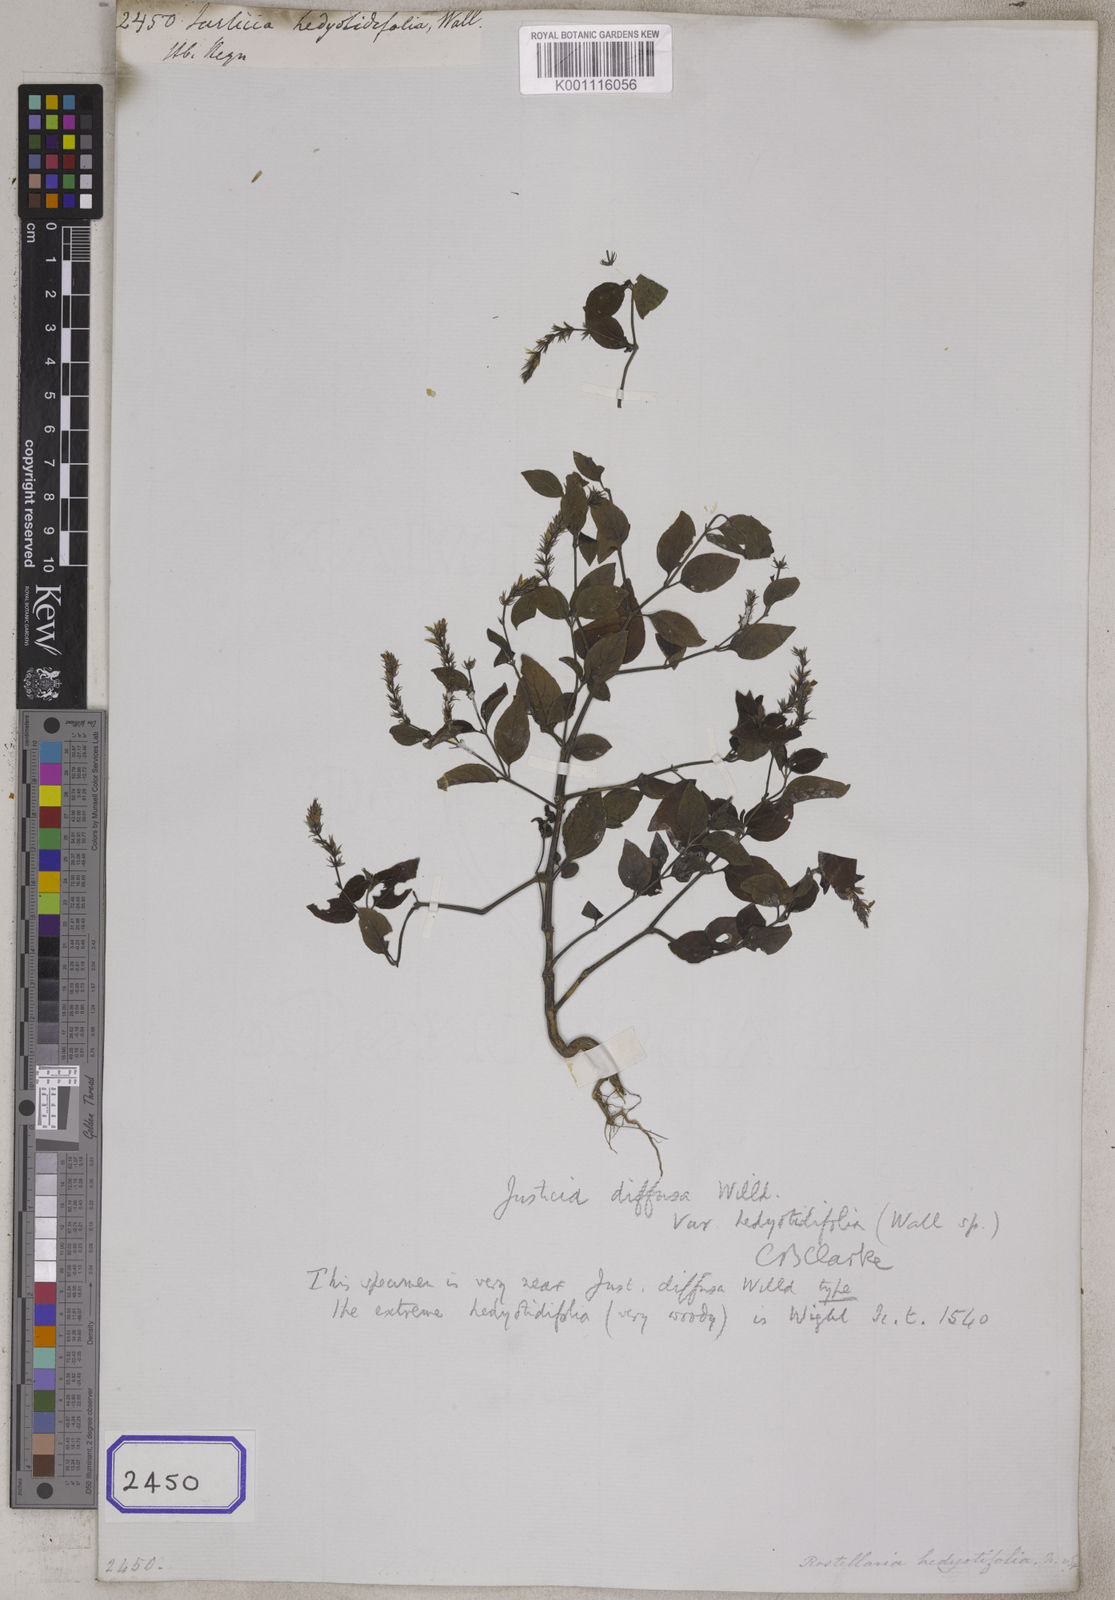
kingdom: Plantae
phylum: Tracheophyta
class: Magnoliopsida
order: Lamiales
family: Acanthaceae
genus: Rostellularia
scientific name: Rostellularia diffusa
